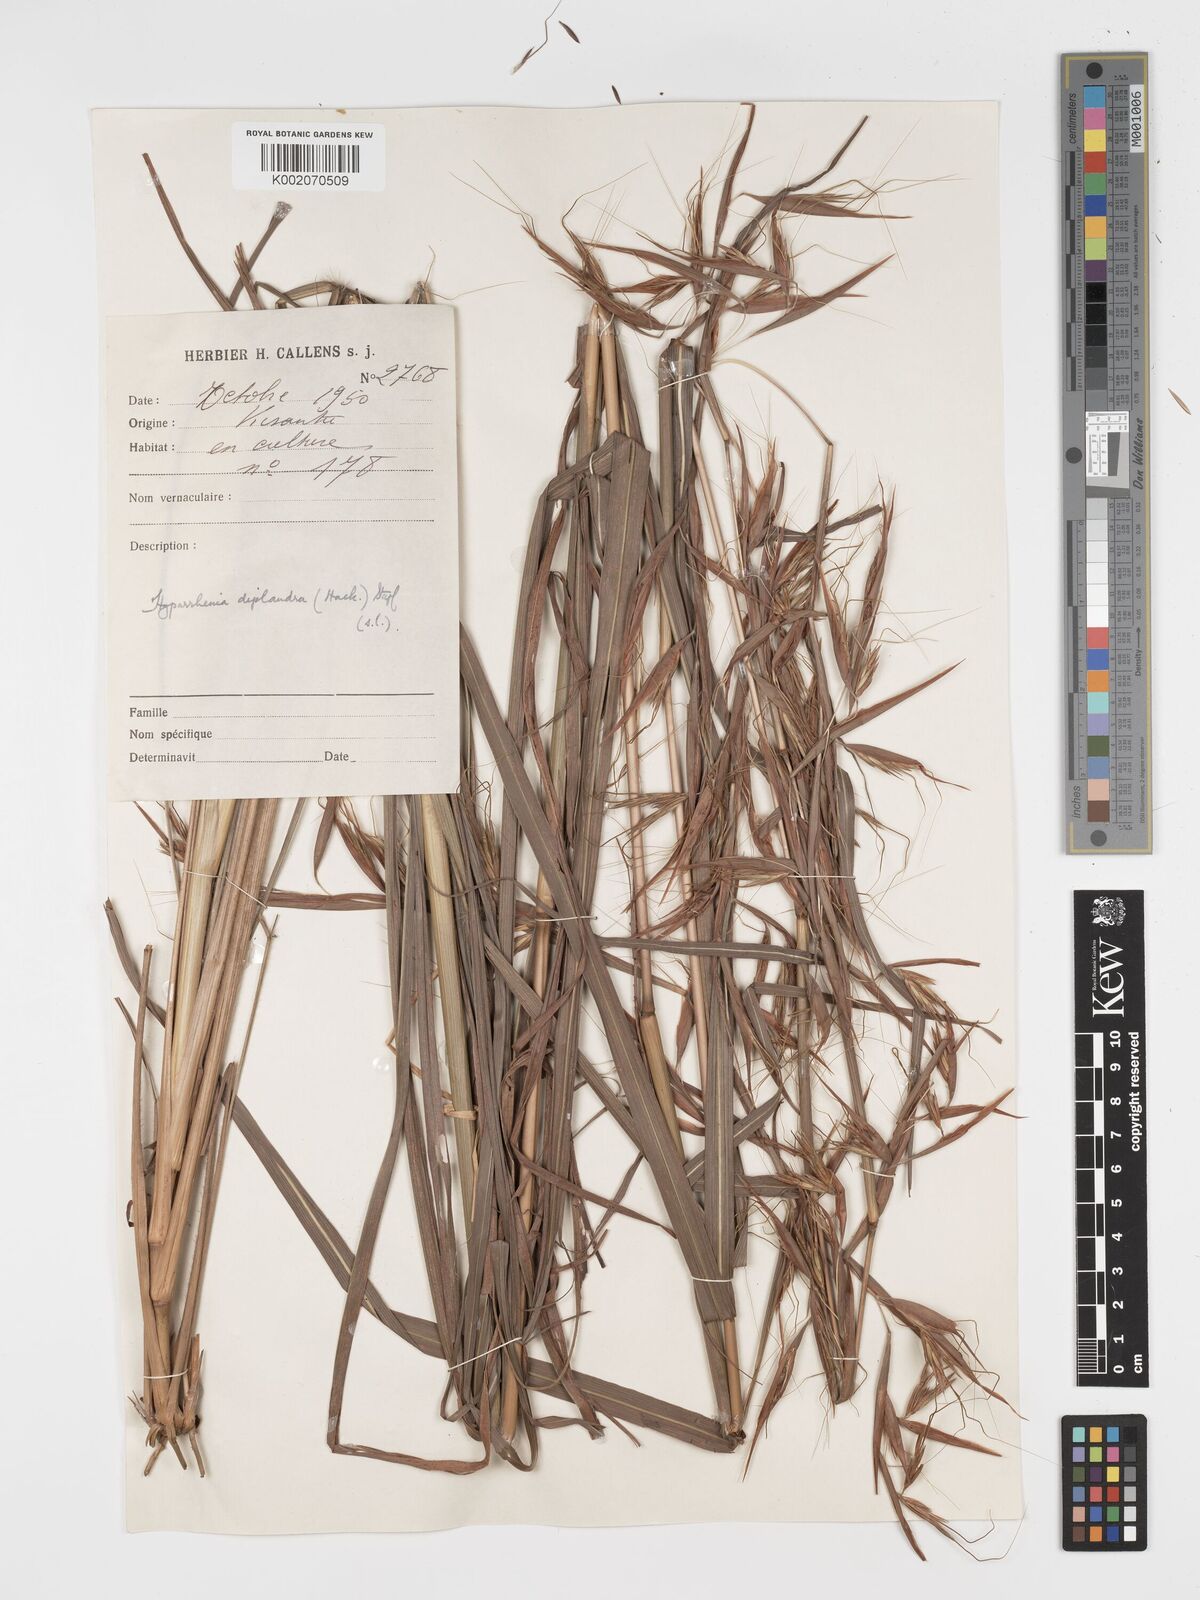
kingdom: Plantae
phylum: Tracheophyta
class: Liliopsida
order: Poales
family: Poaceae
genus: Hyparrhenia
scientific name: Hyparrhenia diplandra
